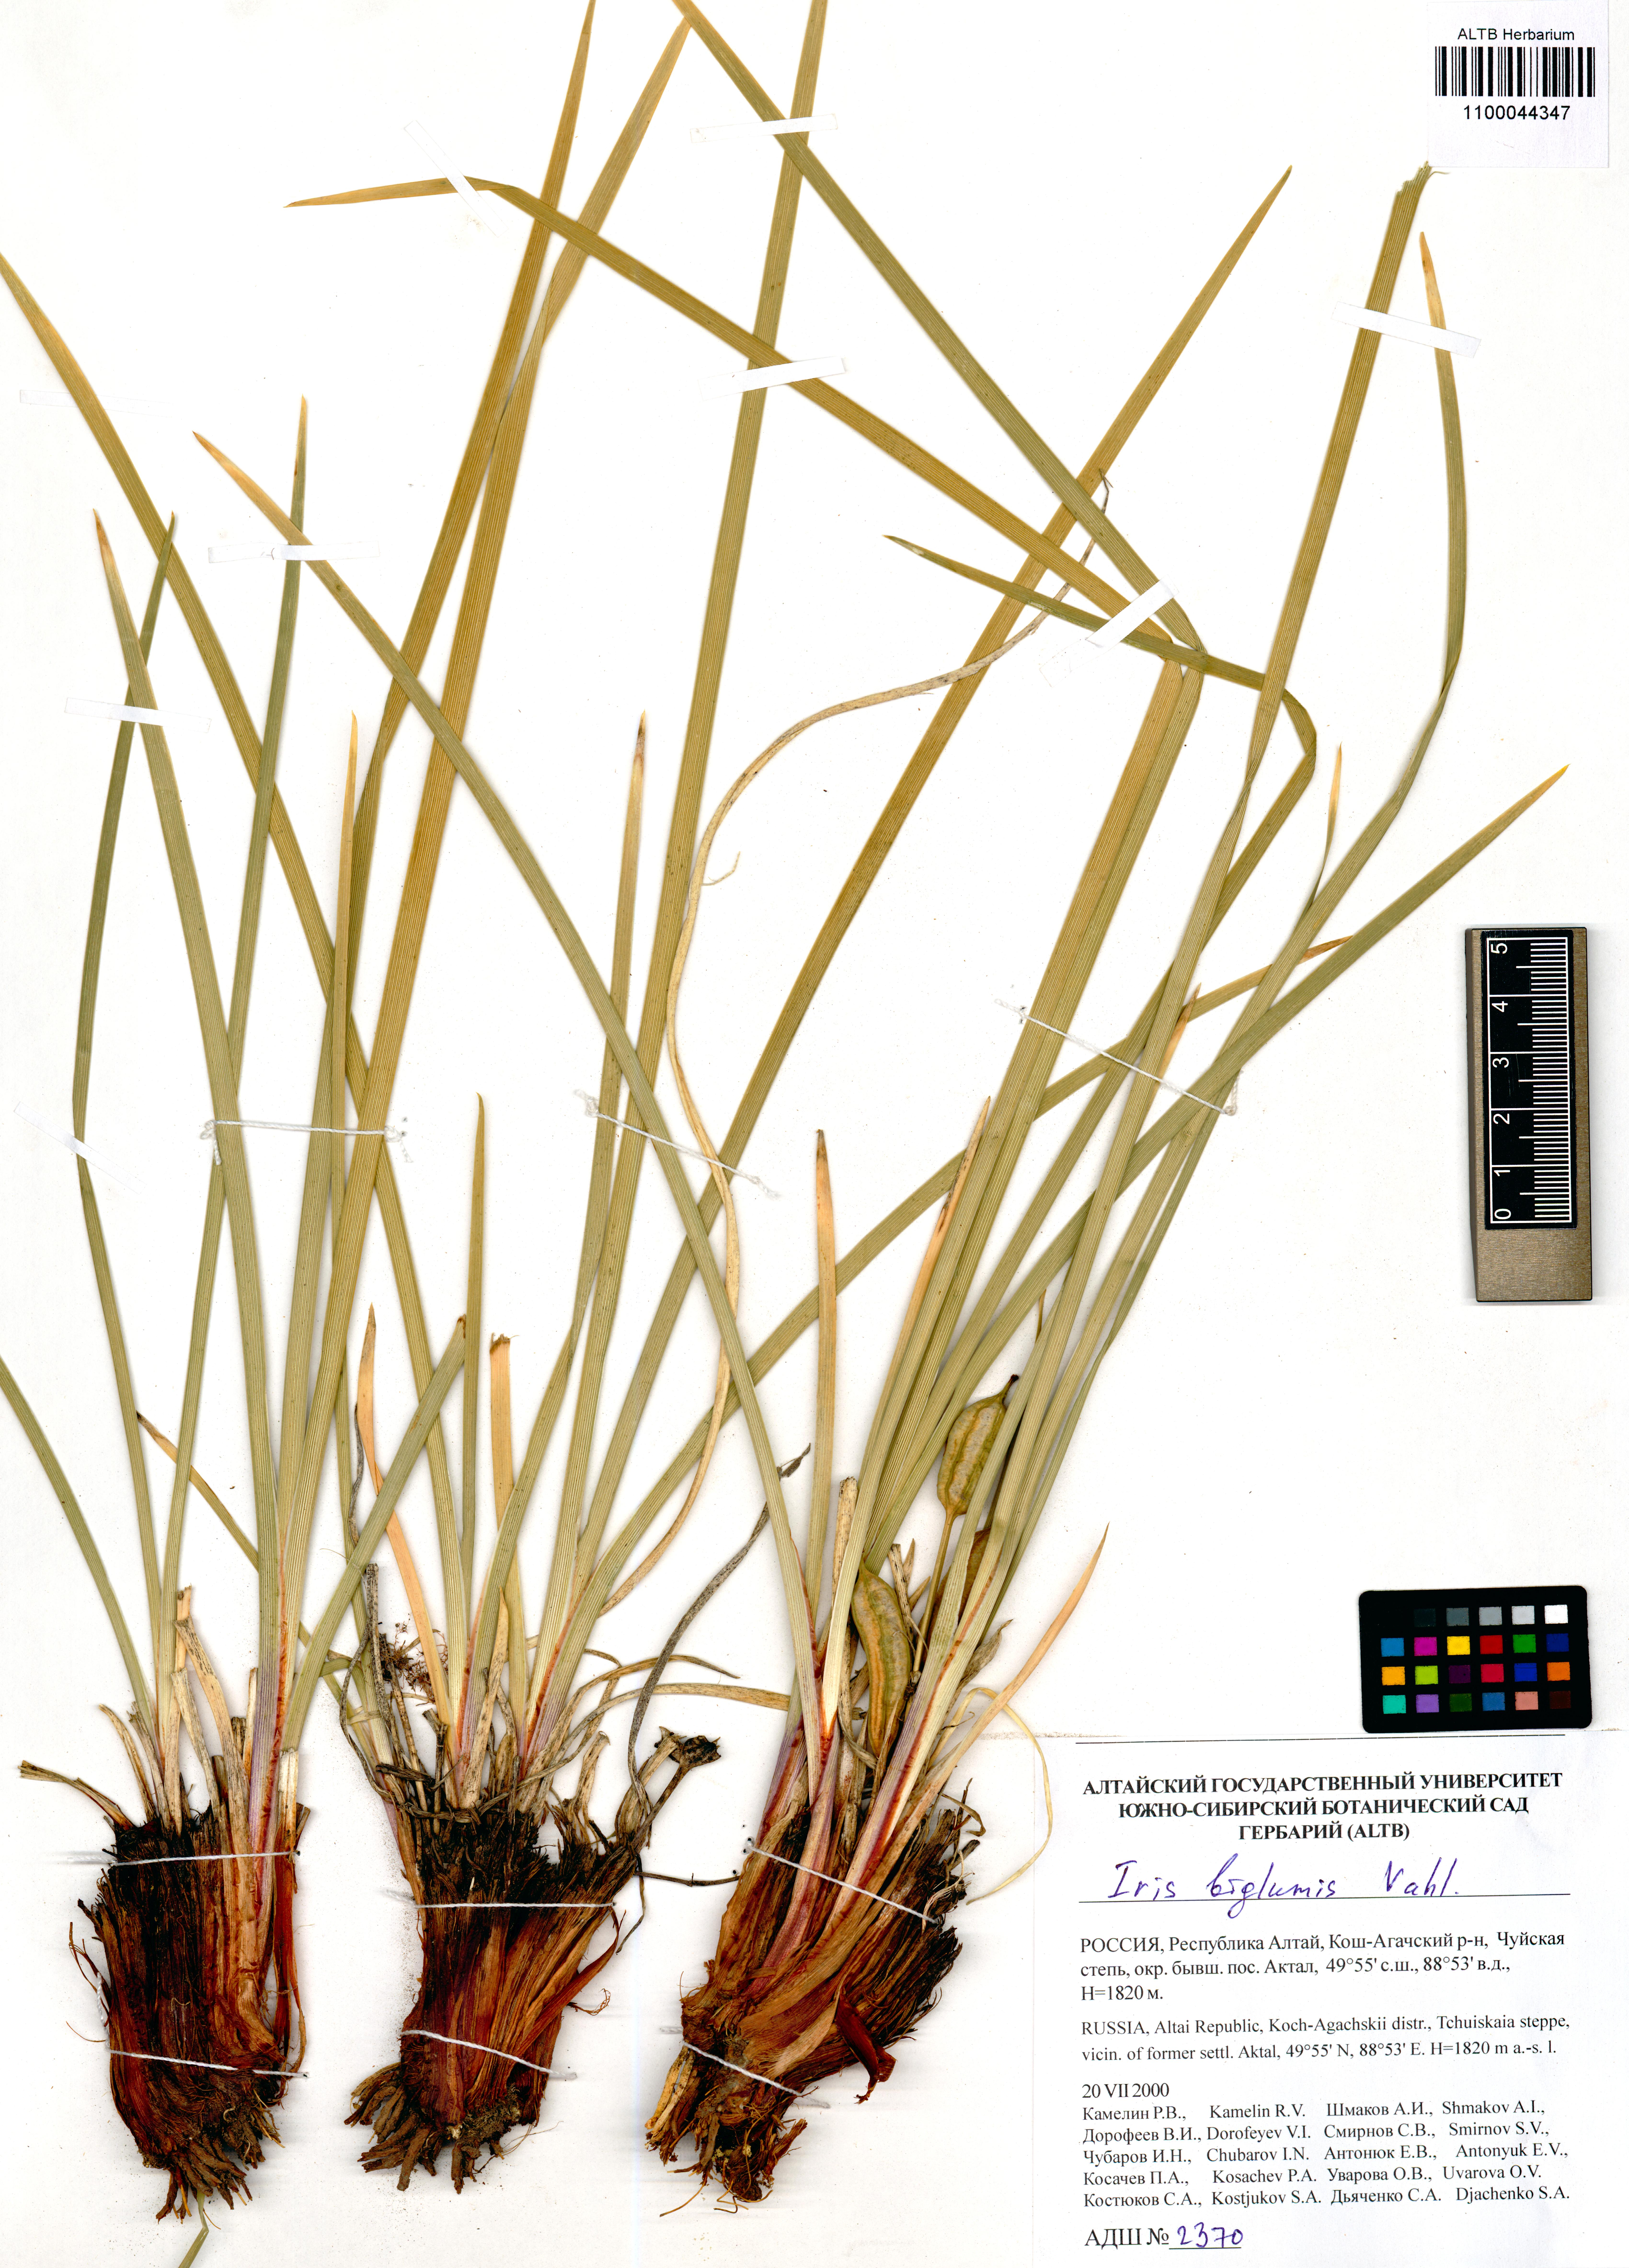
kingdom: Plantae
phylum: Tracheophyta
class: Liliopsida
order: Asparagales
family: Iridaceae
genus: Iris
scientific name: Iris lactea
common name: White-flower chinese iris
